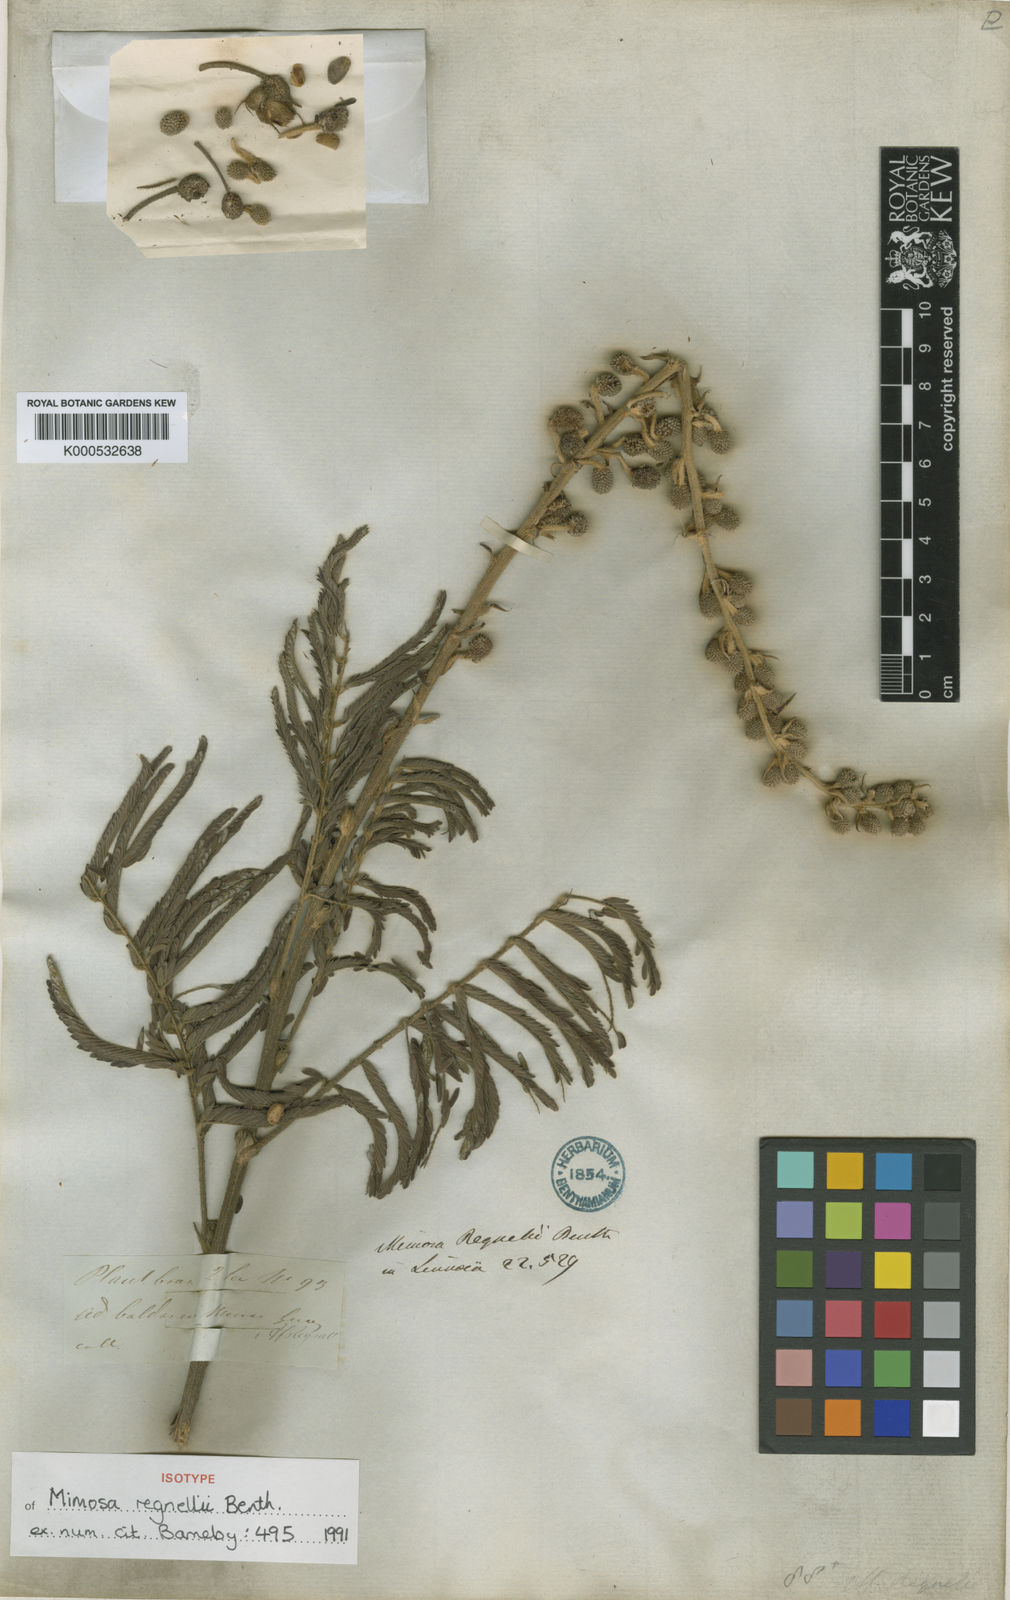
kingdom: Plantae
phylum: Tracheophyta
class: Magnoliopsida
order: Fabales
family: Fabaceae
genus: Mimosa
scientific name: Mimosa regnellii
